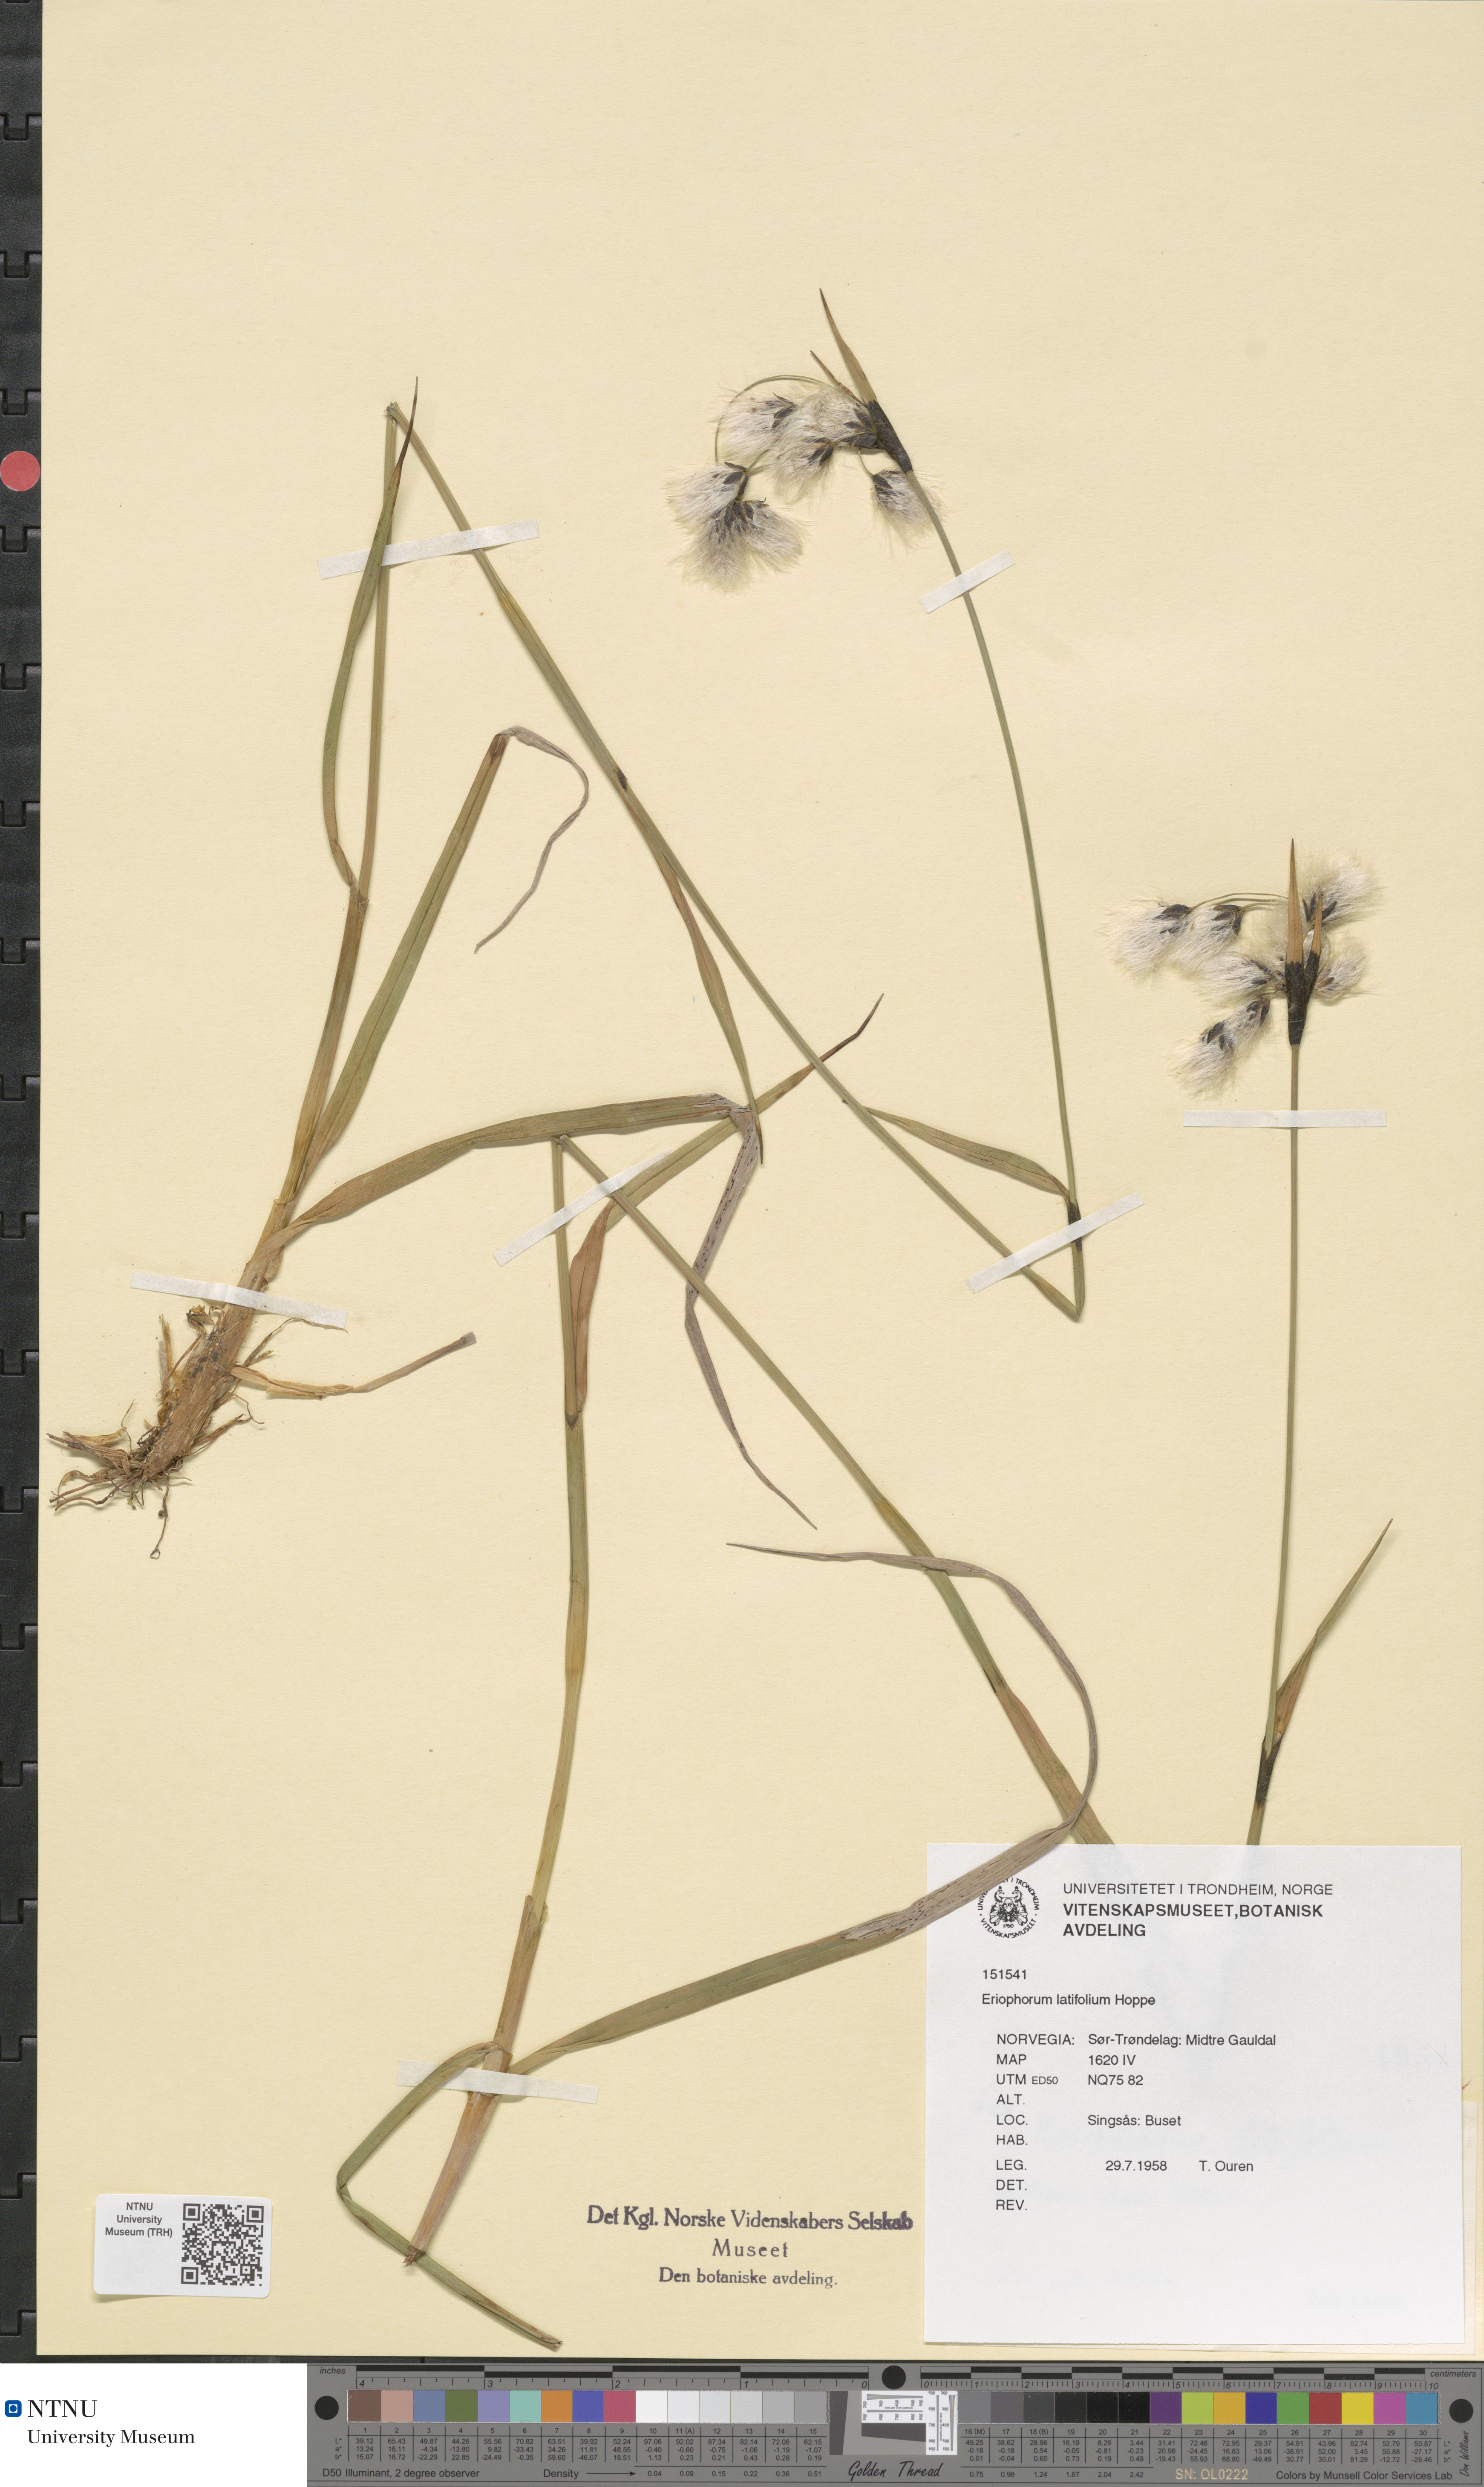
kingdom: Plantae
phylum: Tracheophyta
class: Liliopsida
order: Poales
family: Cyperaceae
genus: Eriophorum
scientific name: Eriophorum latifolium
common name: Broad-leaved cottongrass
